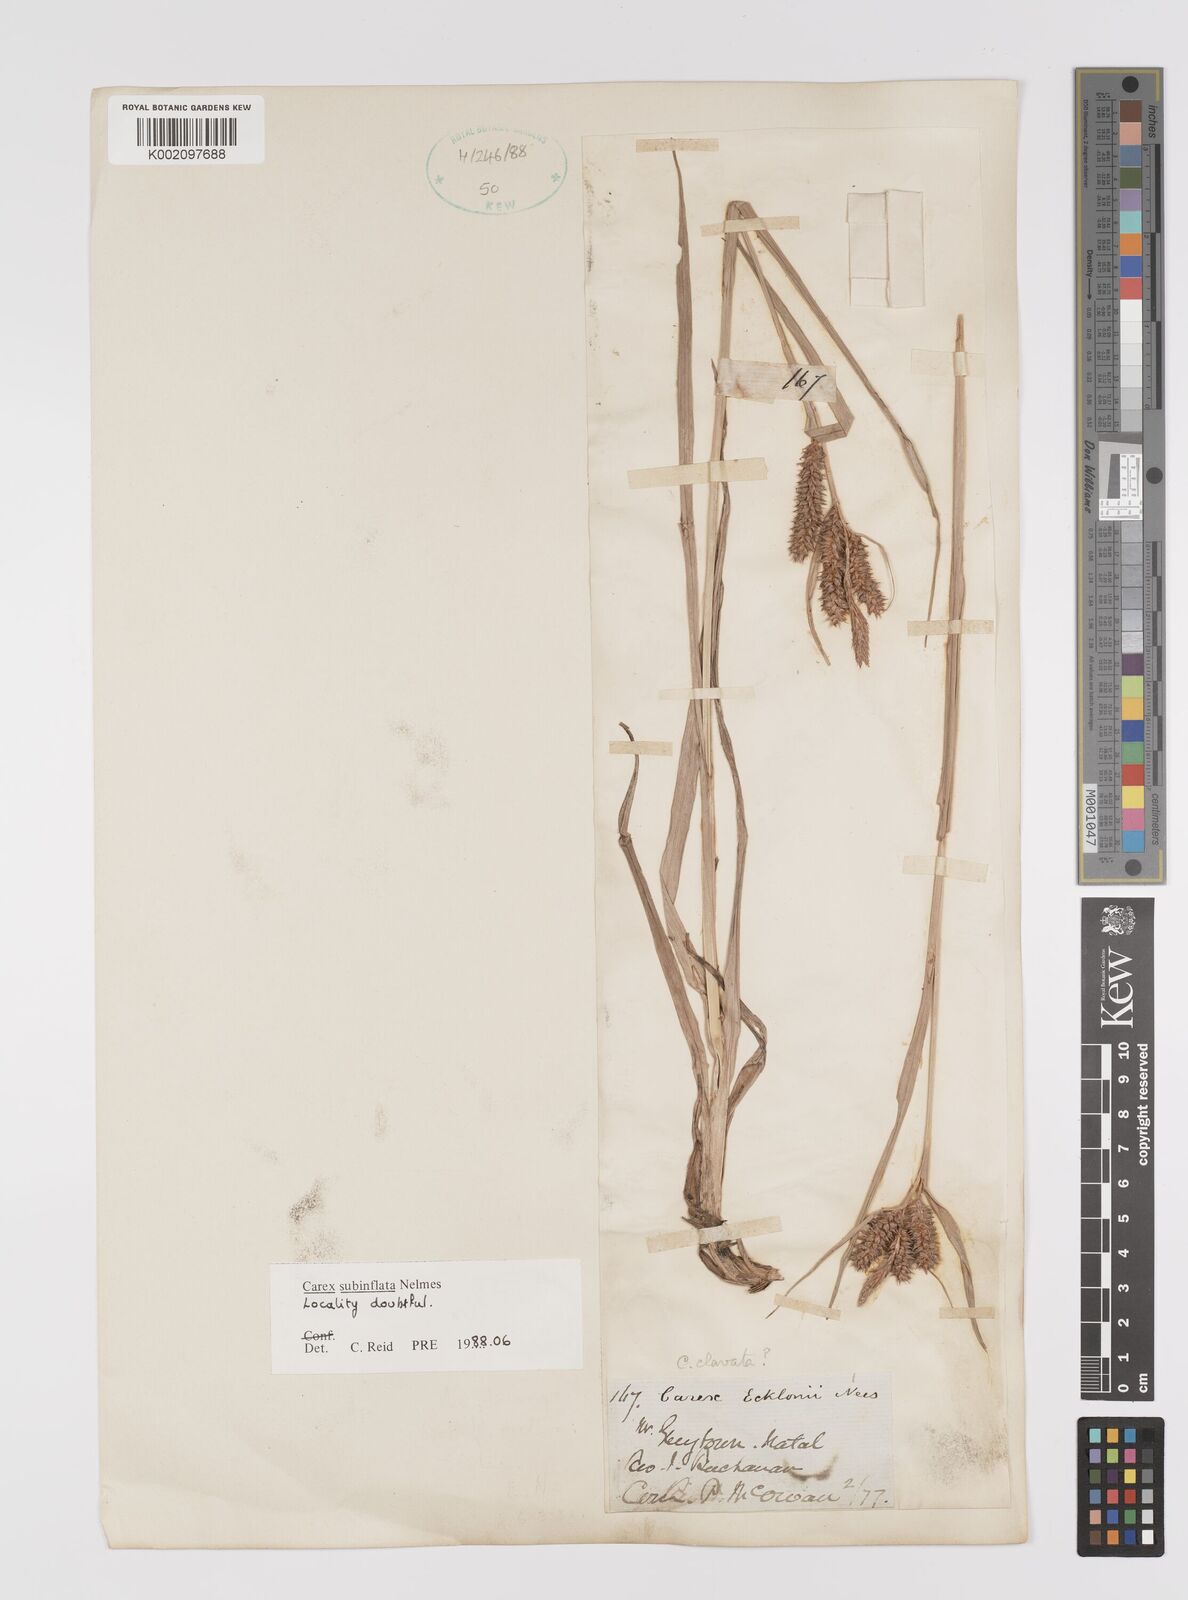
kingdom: Plantae
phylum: Tracheophyta
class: Liliopsida
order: Poales
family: Cyperaceae
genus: Carex
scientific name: Carex subinflata
